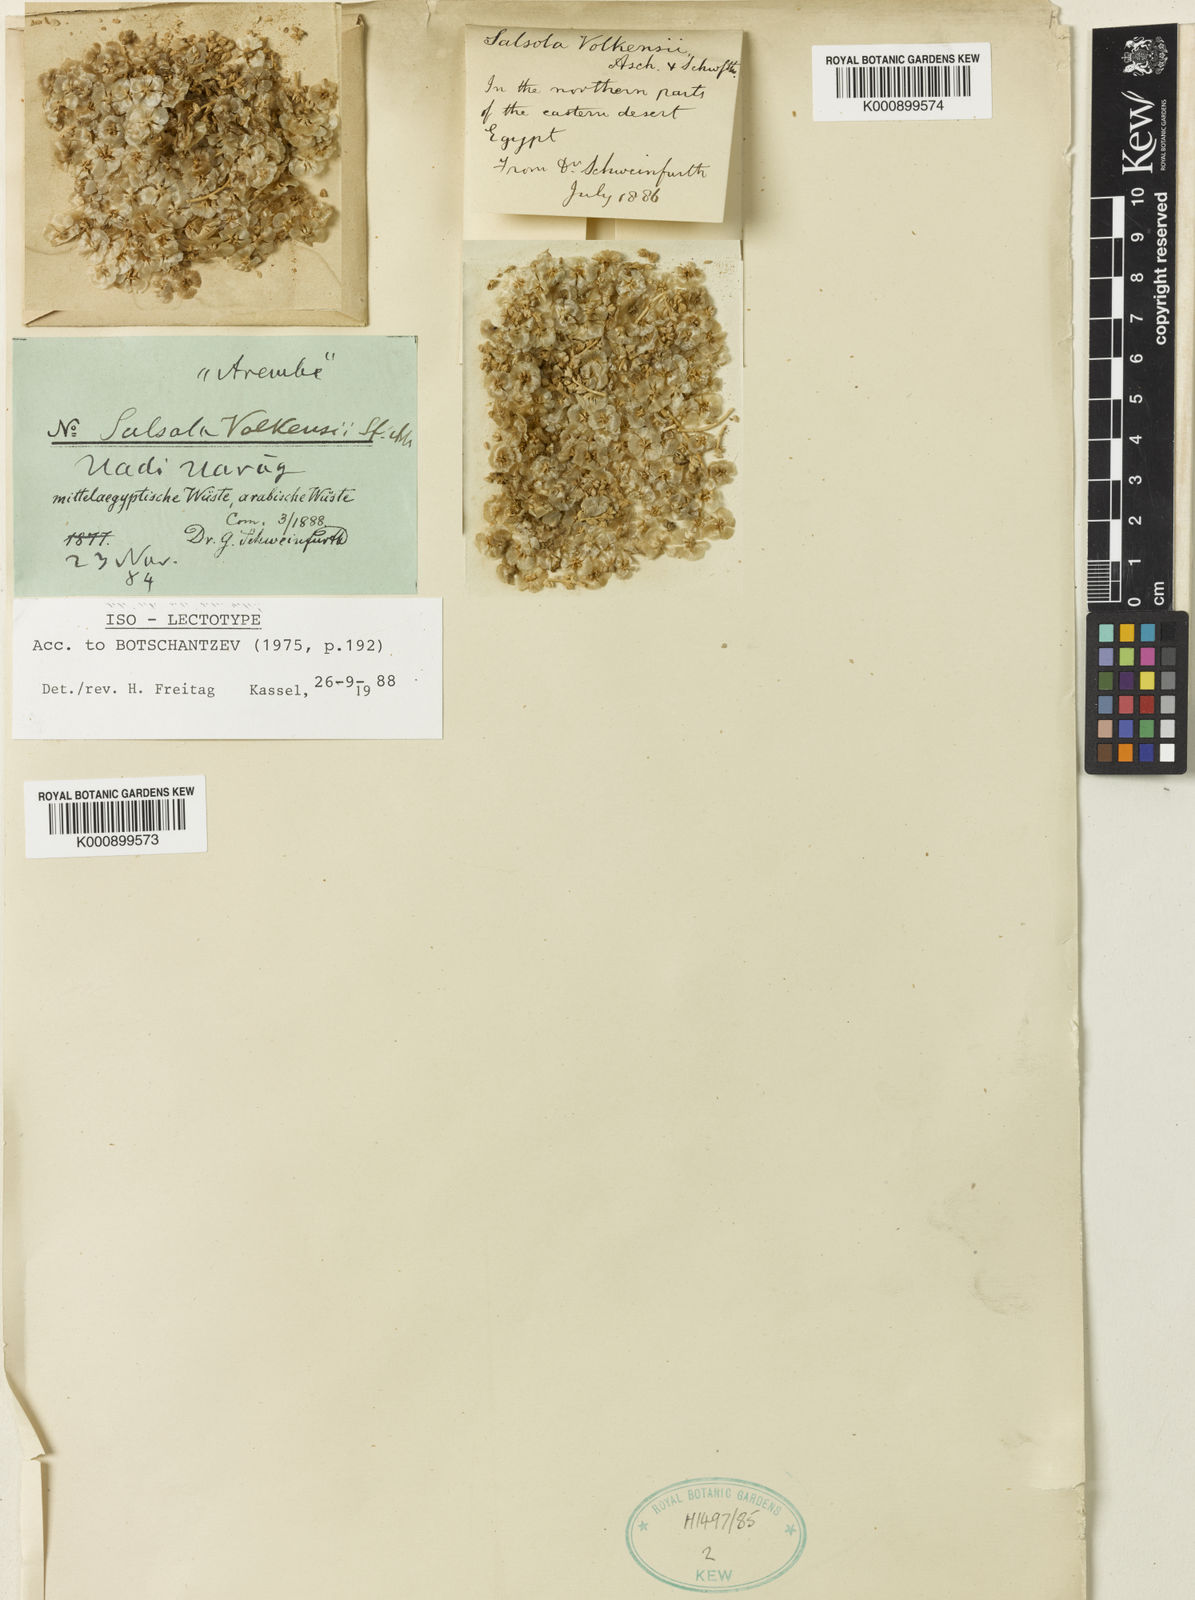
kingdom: Plantae
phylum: Tracheophyta
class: Magnoliopsida
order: Caryophyllales
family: Amaranthaceae
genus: Nitrosalsola
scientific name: Nitrosalsola volkensii
